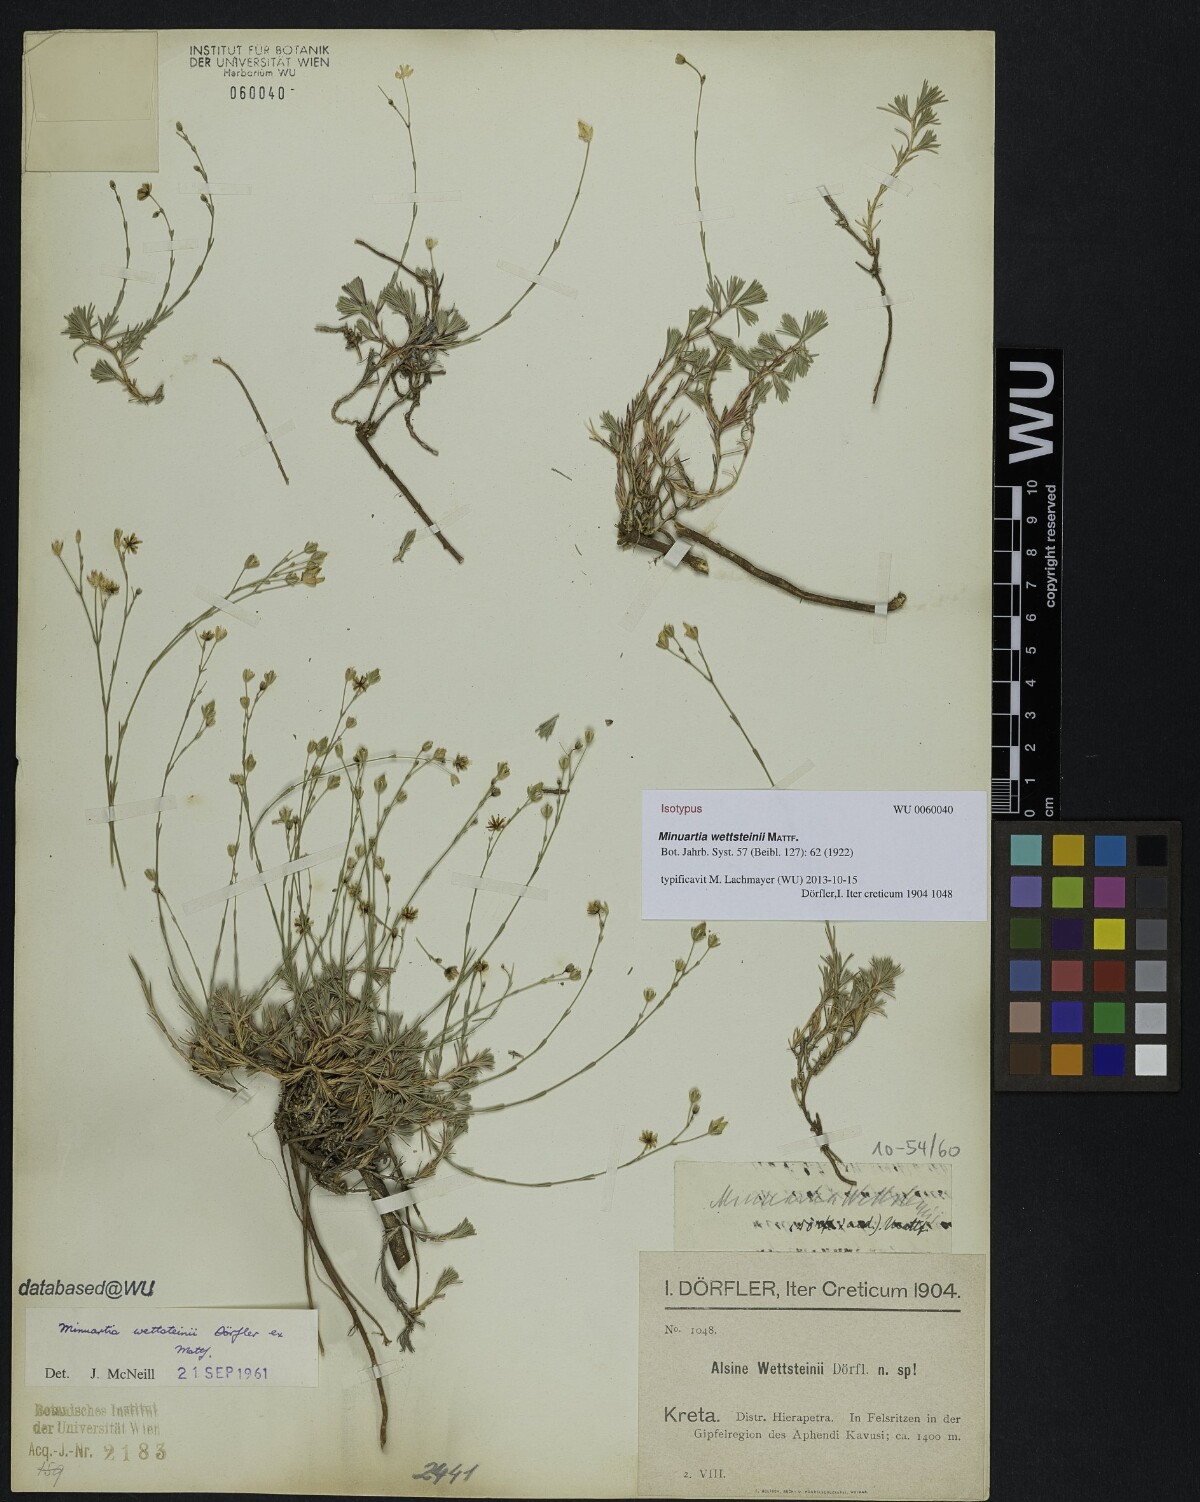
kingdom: Plantae
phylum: Tracheophyta
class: Magnoliopsida
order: Caryophyllales
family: Caryophyllaceae
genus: Cherleria
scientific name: Cherleria wettsteinii
